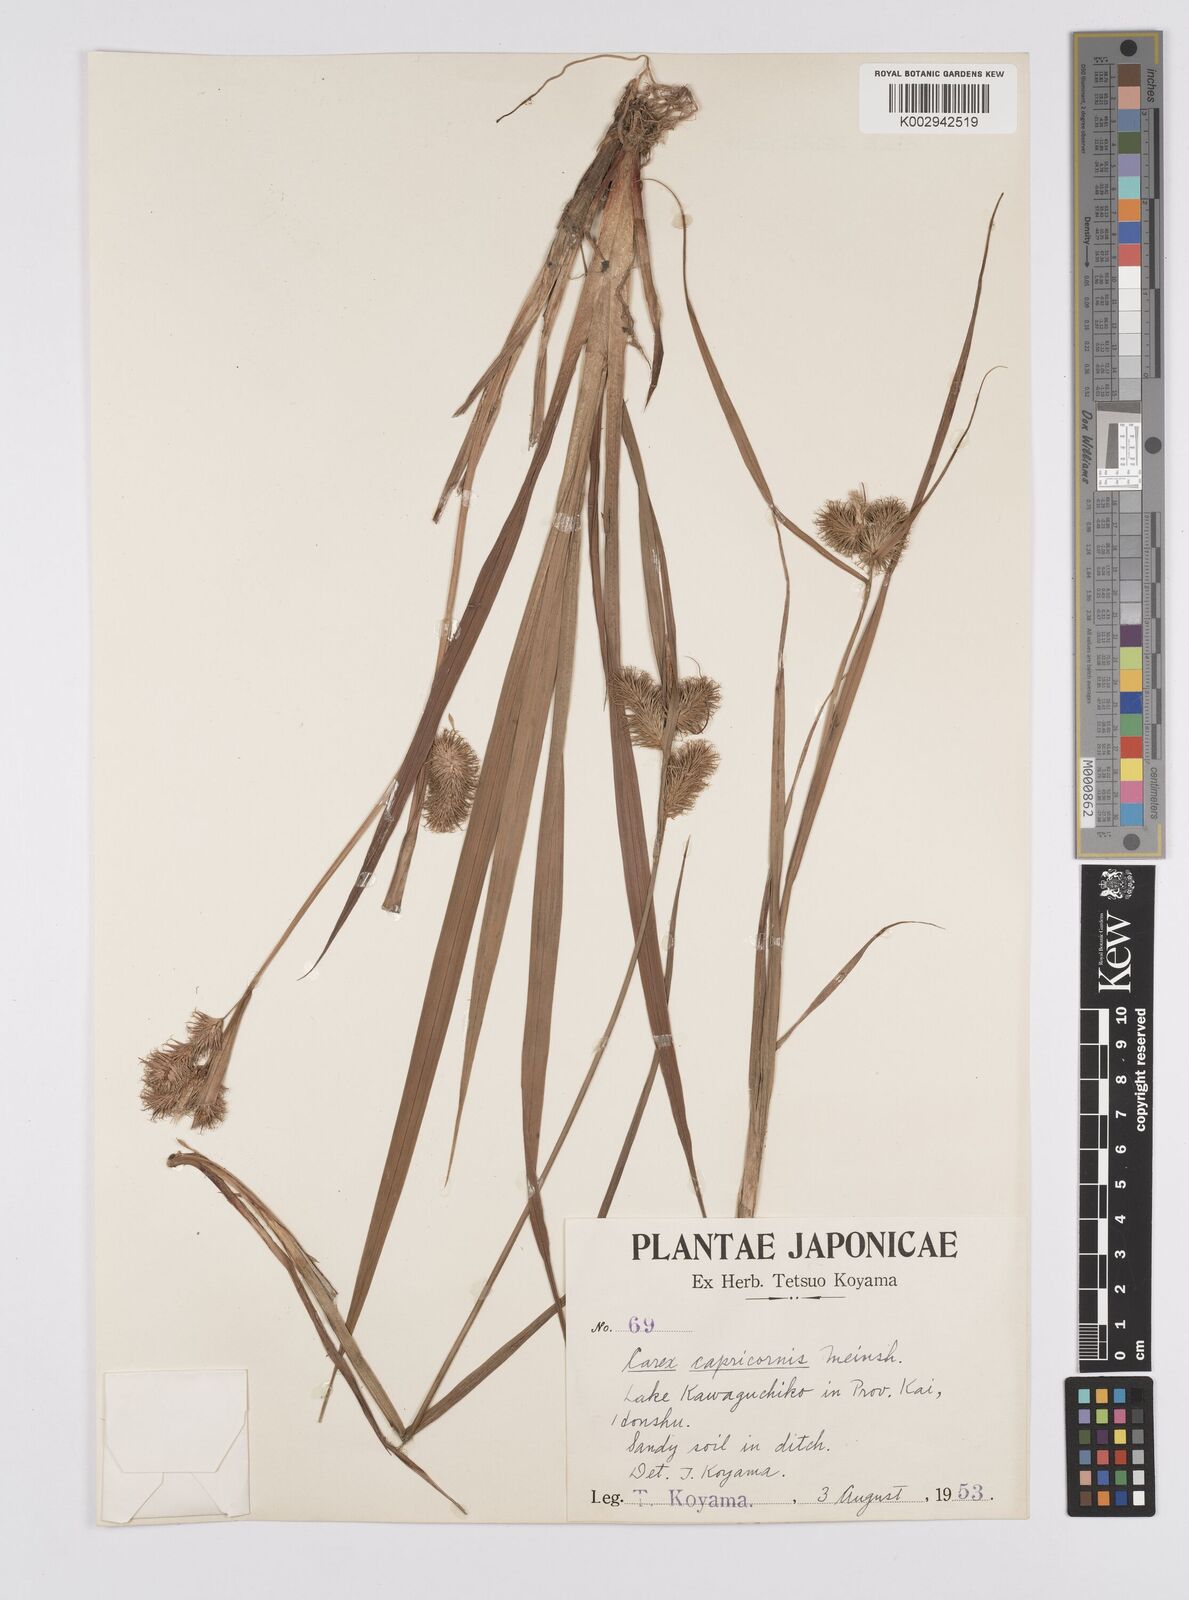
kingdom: Plantae
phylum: Tracheophyta
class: Liliopsida
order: Poales
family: Cyperaceae
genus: Carex
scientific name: Carex capricornis
